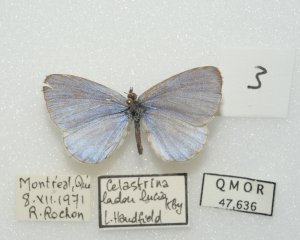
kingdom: Animalia
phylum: Arthropoda
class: Insecta
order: Lepidoptera
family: Lycaenidae
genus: Cyaniris
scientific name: Cyaniris neglecta
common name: Summer Azure
